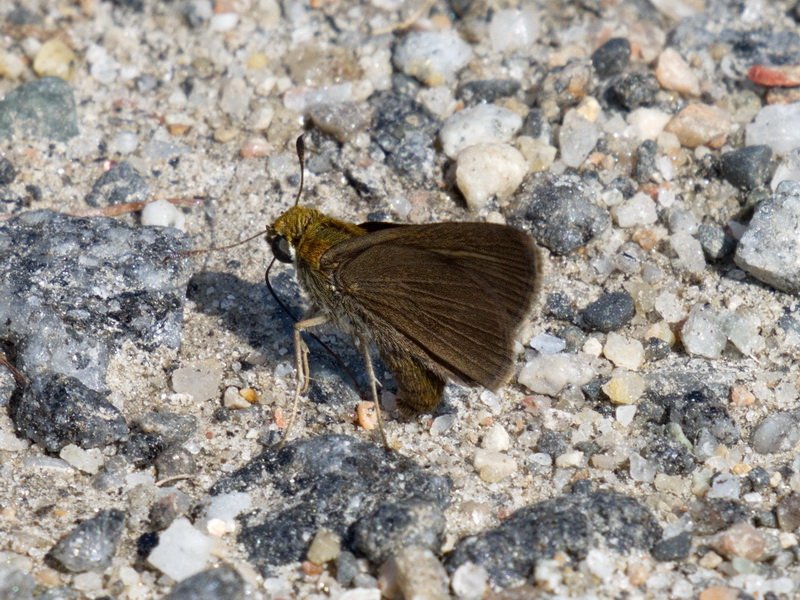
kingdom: Animalia
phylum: Arthropoda
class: Insecta
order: Lepidoptera
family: Hesperiidae
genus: Euphyes
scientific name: Euphyes vestris
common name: Dun Skipper
